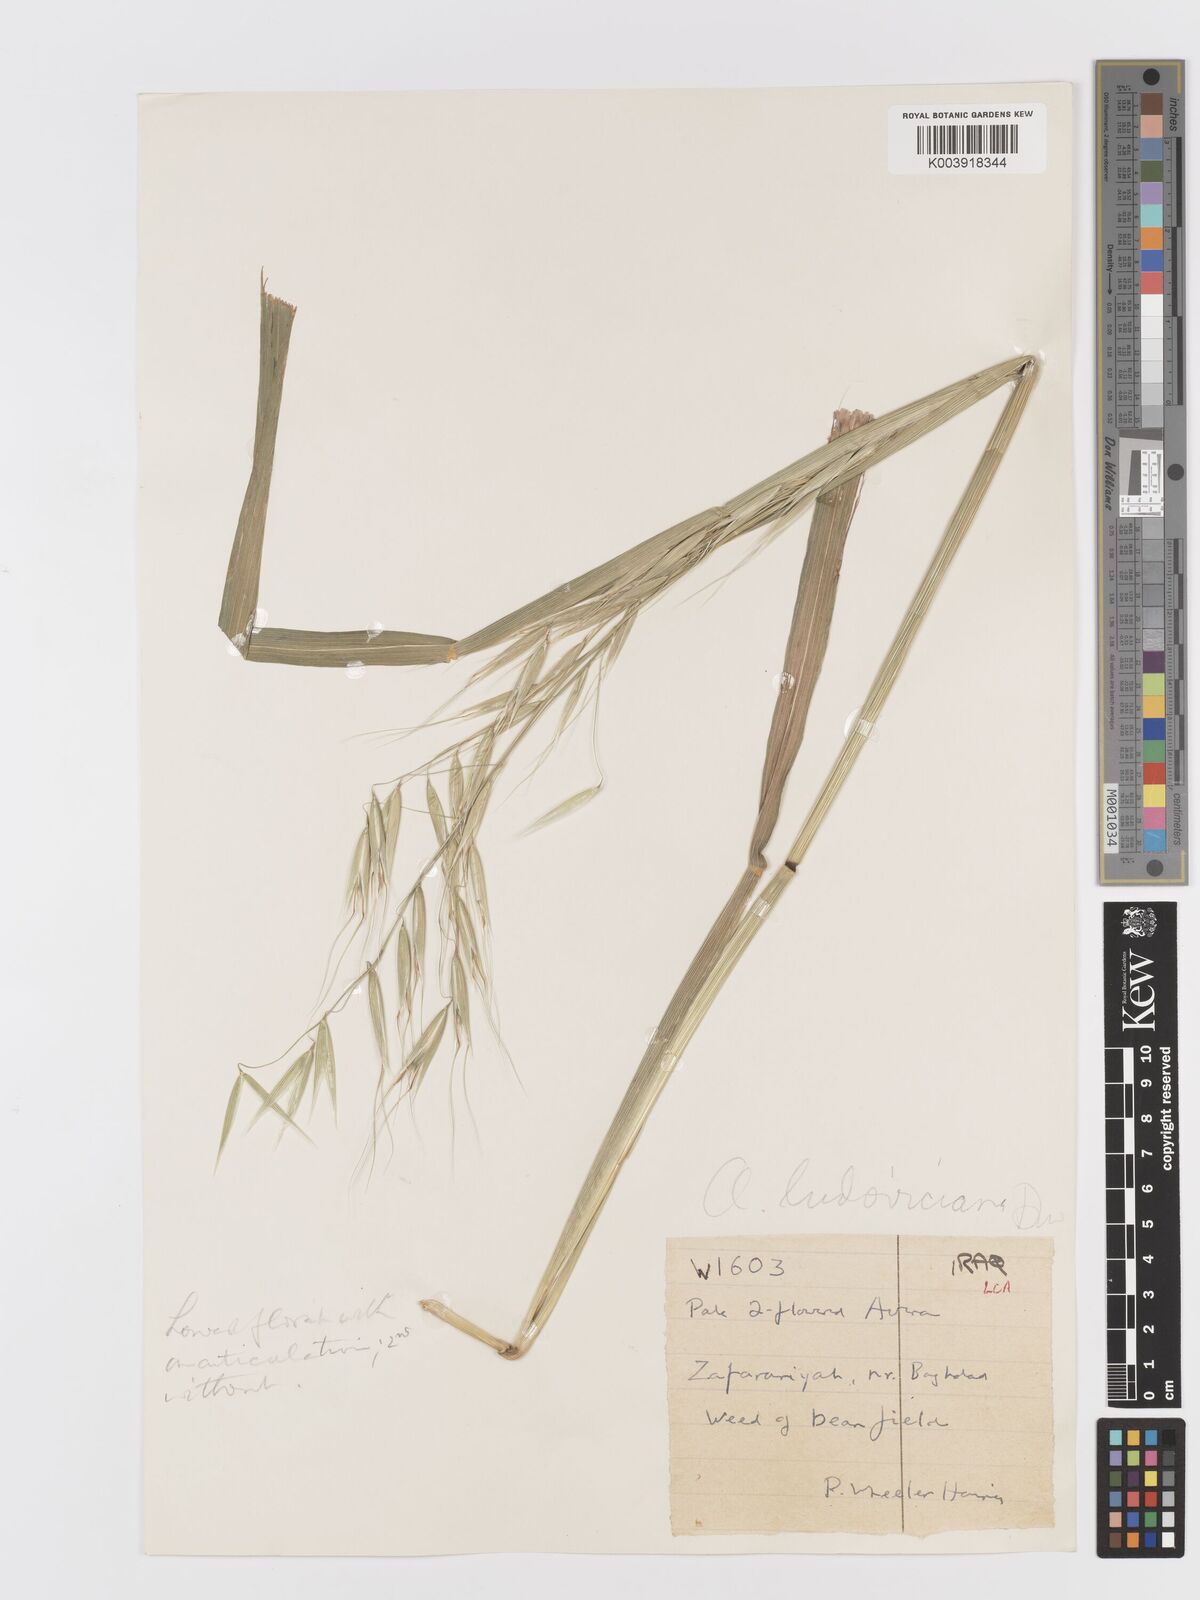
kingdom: Plantae
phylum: Tracheophyta
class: Liliopsida
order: Poales
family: Poaceae
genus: Avena
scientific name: Avena sterilis
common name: Animated oat
